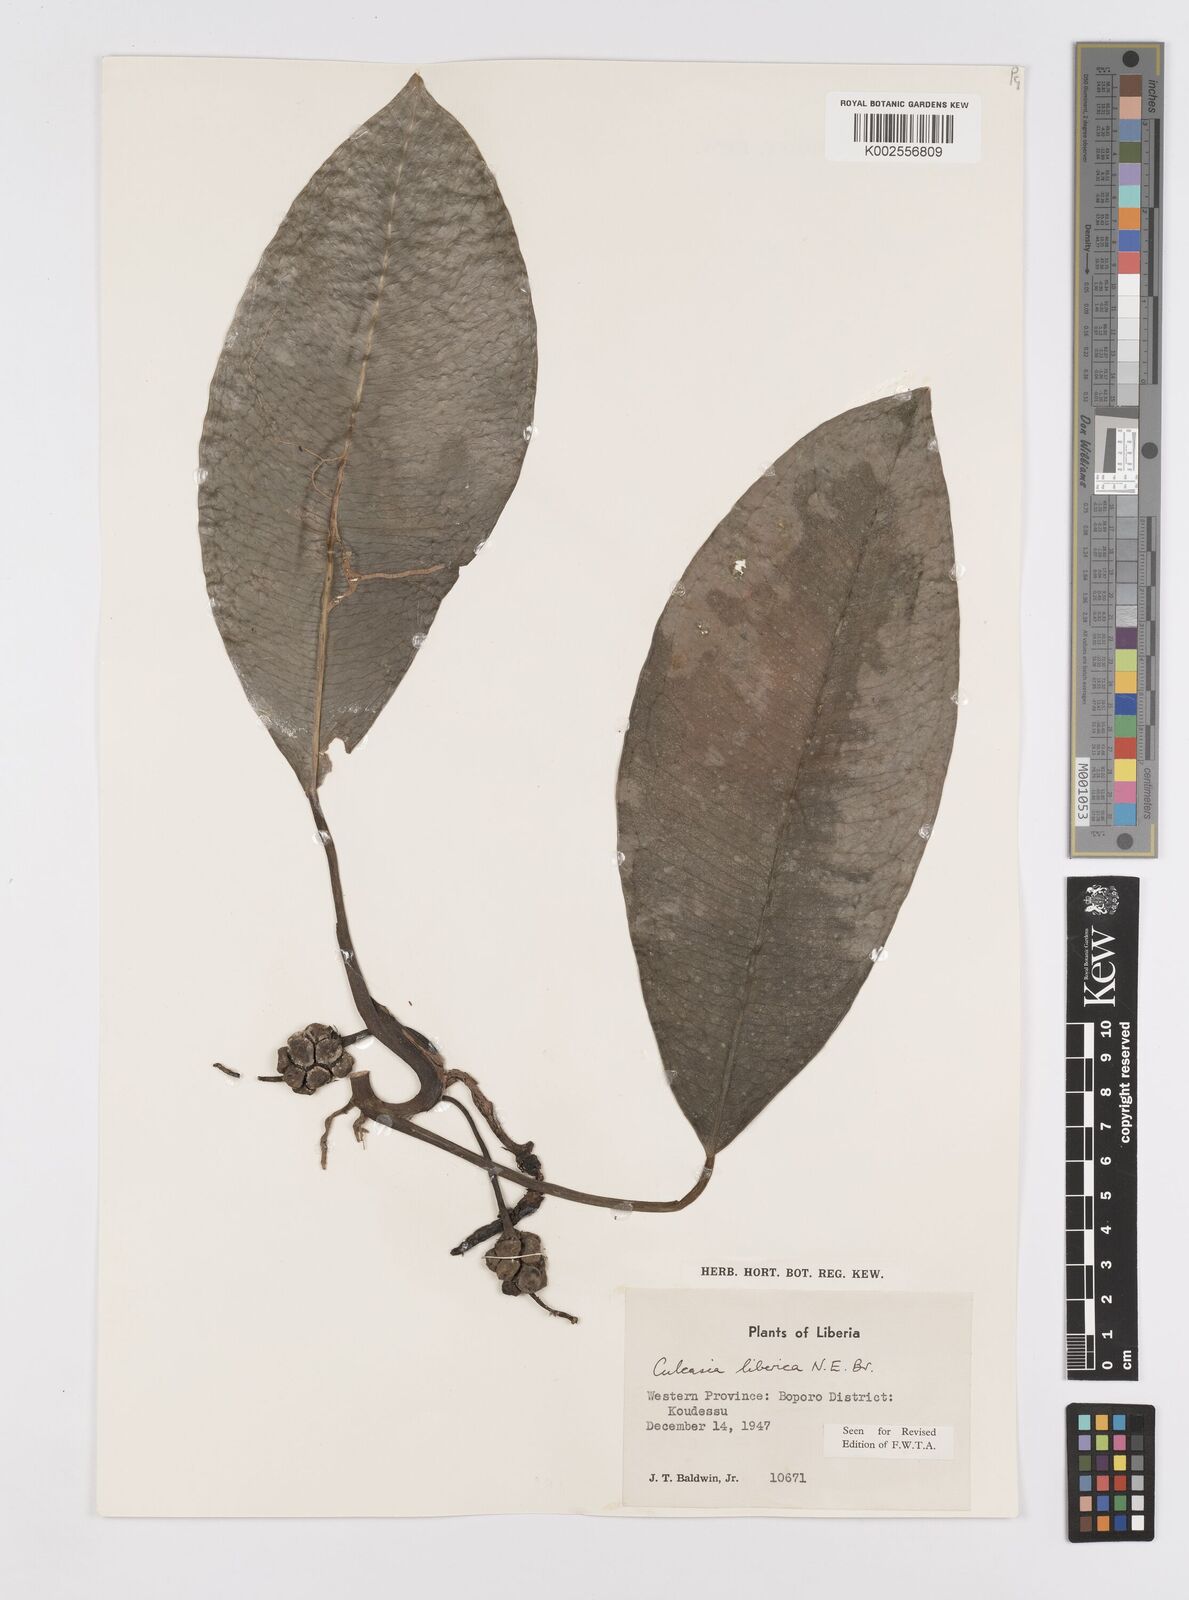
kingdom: Plantae
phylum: Tracheophyta
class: Liliopsida
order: Alismatales
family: Araceae
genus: Culcasia
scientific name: Culcasia liberica
